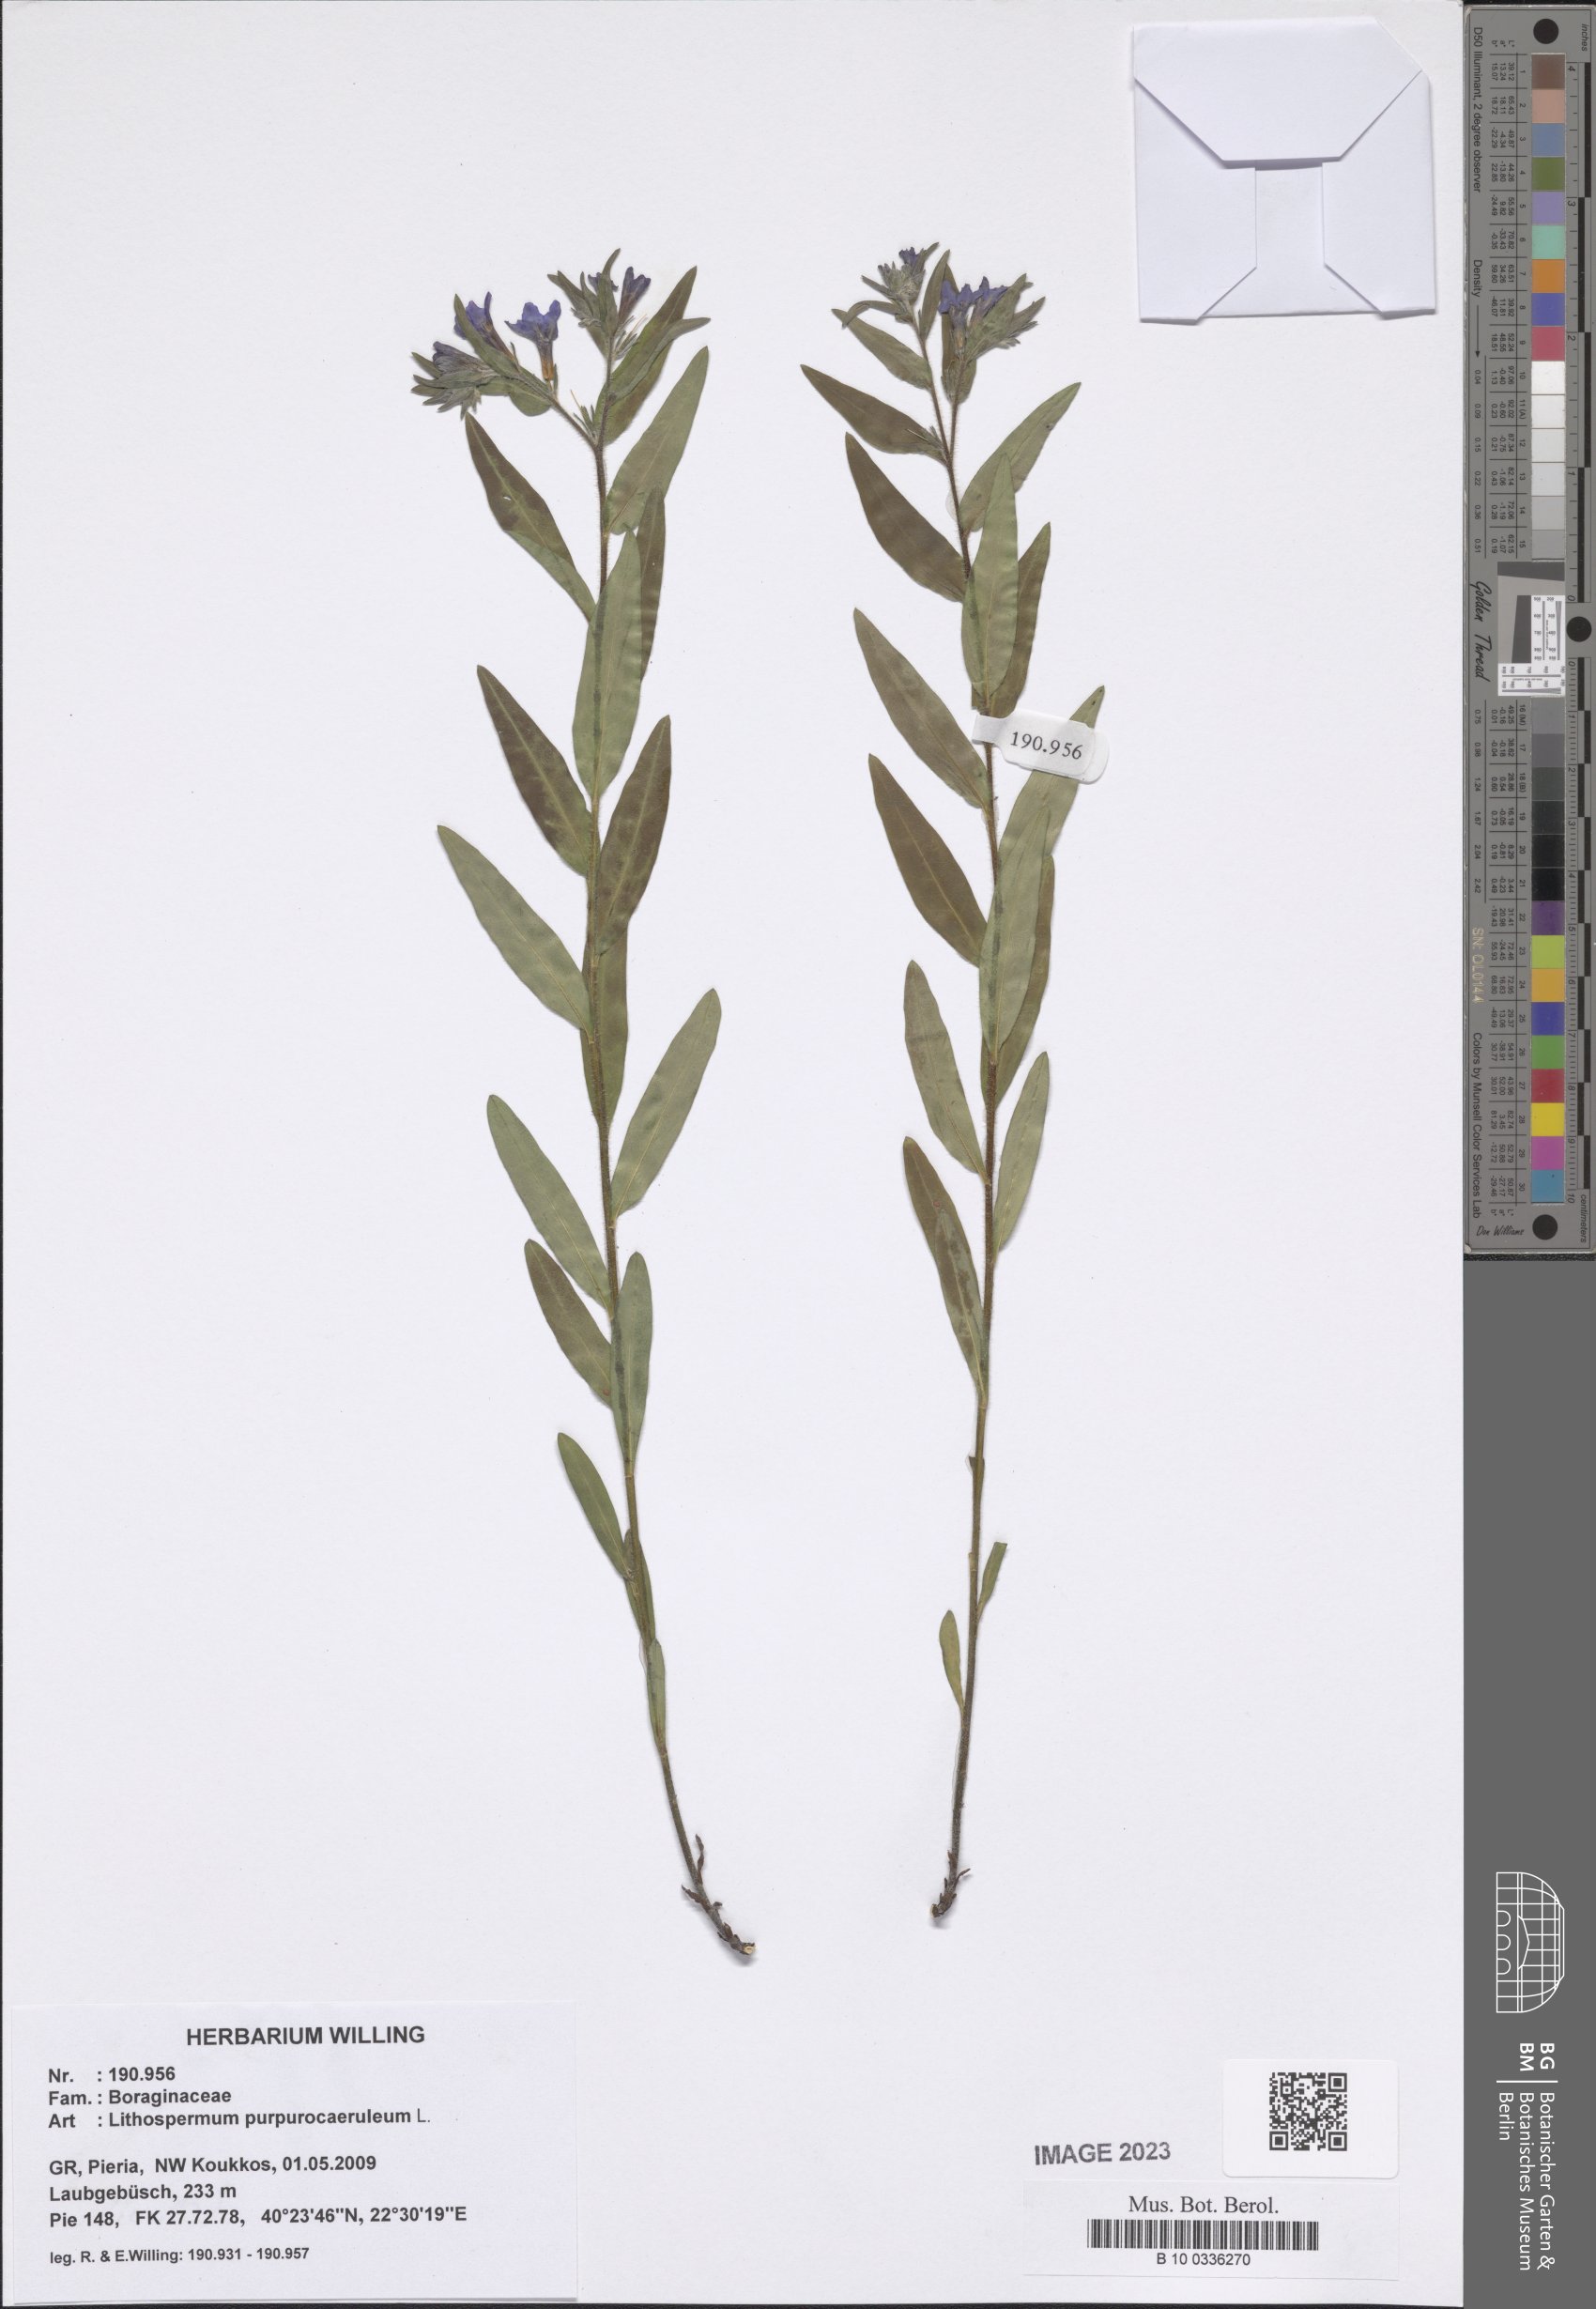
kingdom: Plantae
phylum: Tracheophyta
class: Magnoliopsida
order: Boraginales
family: Boraginaceae
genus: Aegonychon
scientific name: Aegonychon purpurocaeruleum
